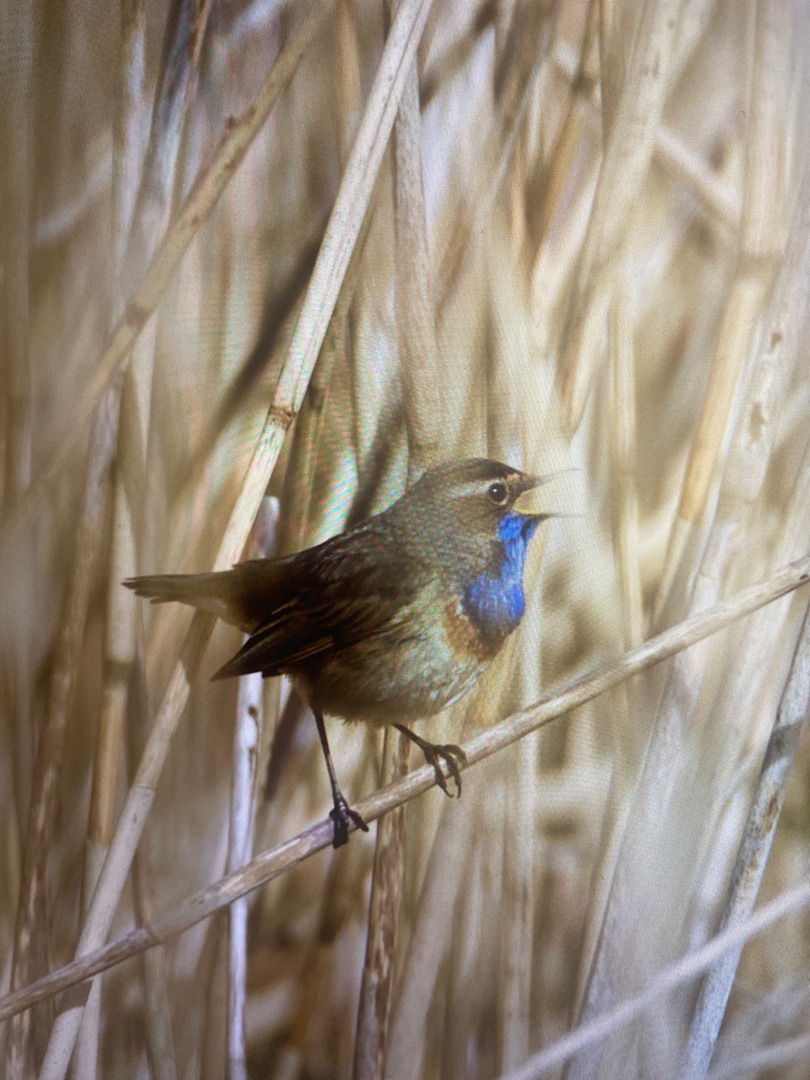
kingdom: Animalia
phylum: Chordata
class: Aves
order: Passeriformes
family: Muscicapidae
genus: Luscinia
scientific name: Luscinia svecica
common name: Blåhals
